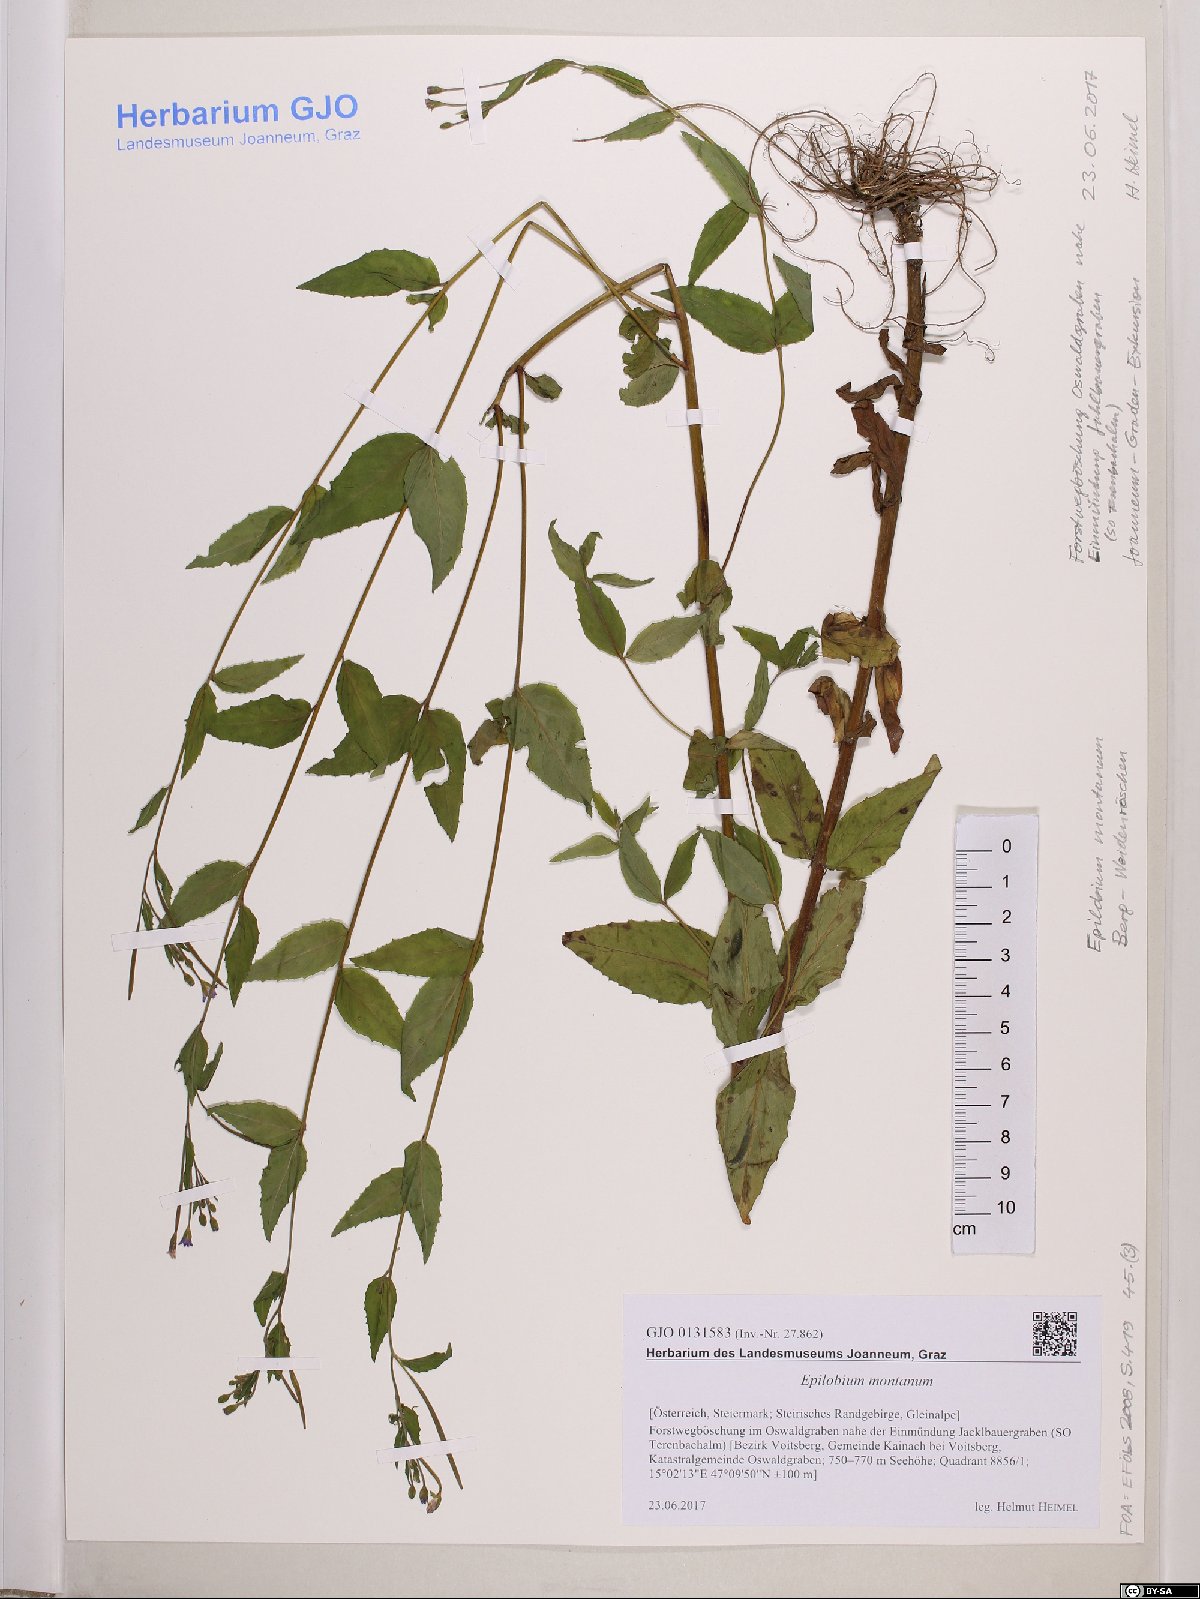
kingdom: Plantae
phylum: Tracheophyta
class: Magnoliopsida
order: Myrtales
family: Onagraceae
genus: Epilobium
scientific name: Epilobium montanum
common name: Broad-leaved willowherb
